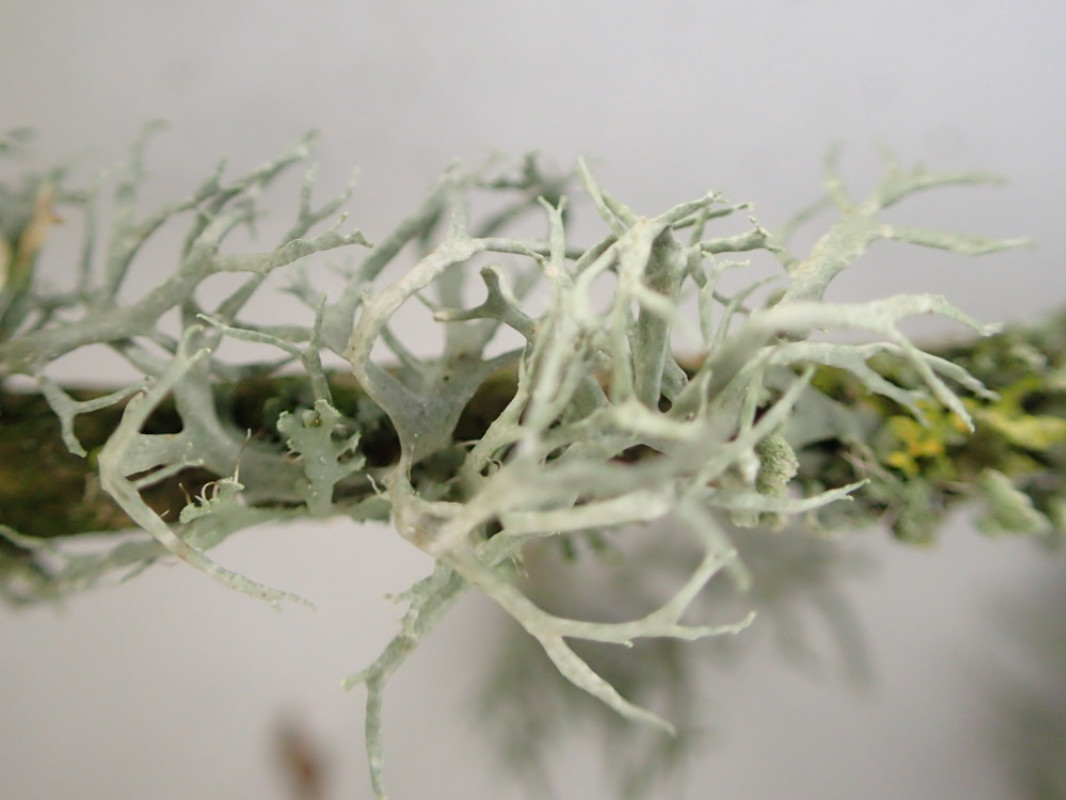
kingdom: Fungi
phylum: Ascomycota
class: Lecanoromycetes
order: Lecanorales
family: Ramalinaceae
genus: Ramalina
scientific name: Ramalina farinacea
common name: melet grenlav
